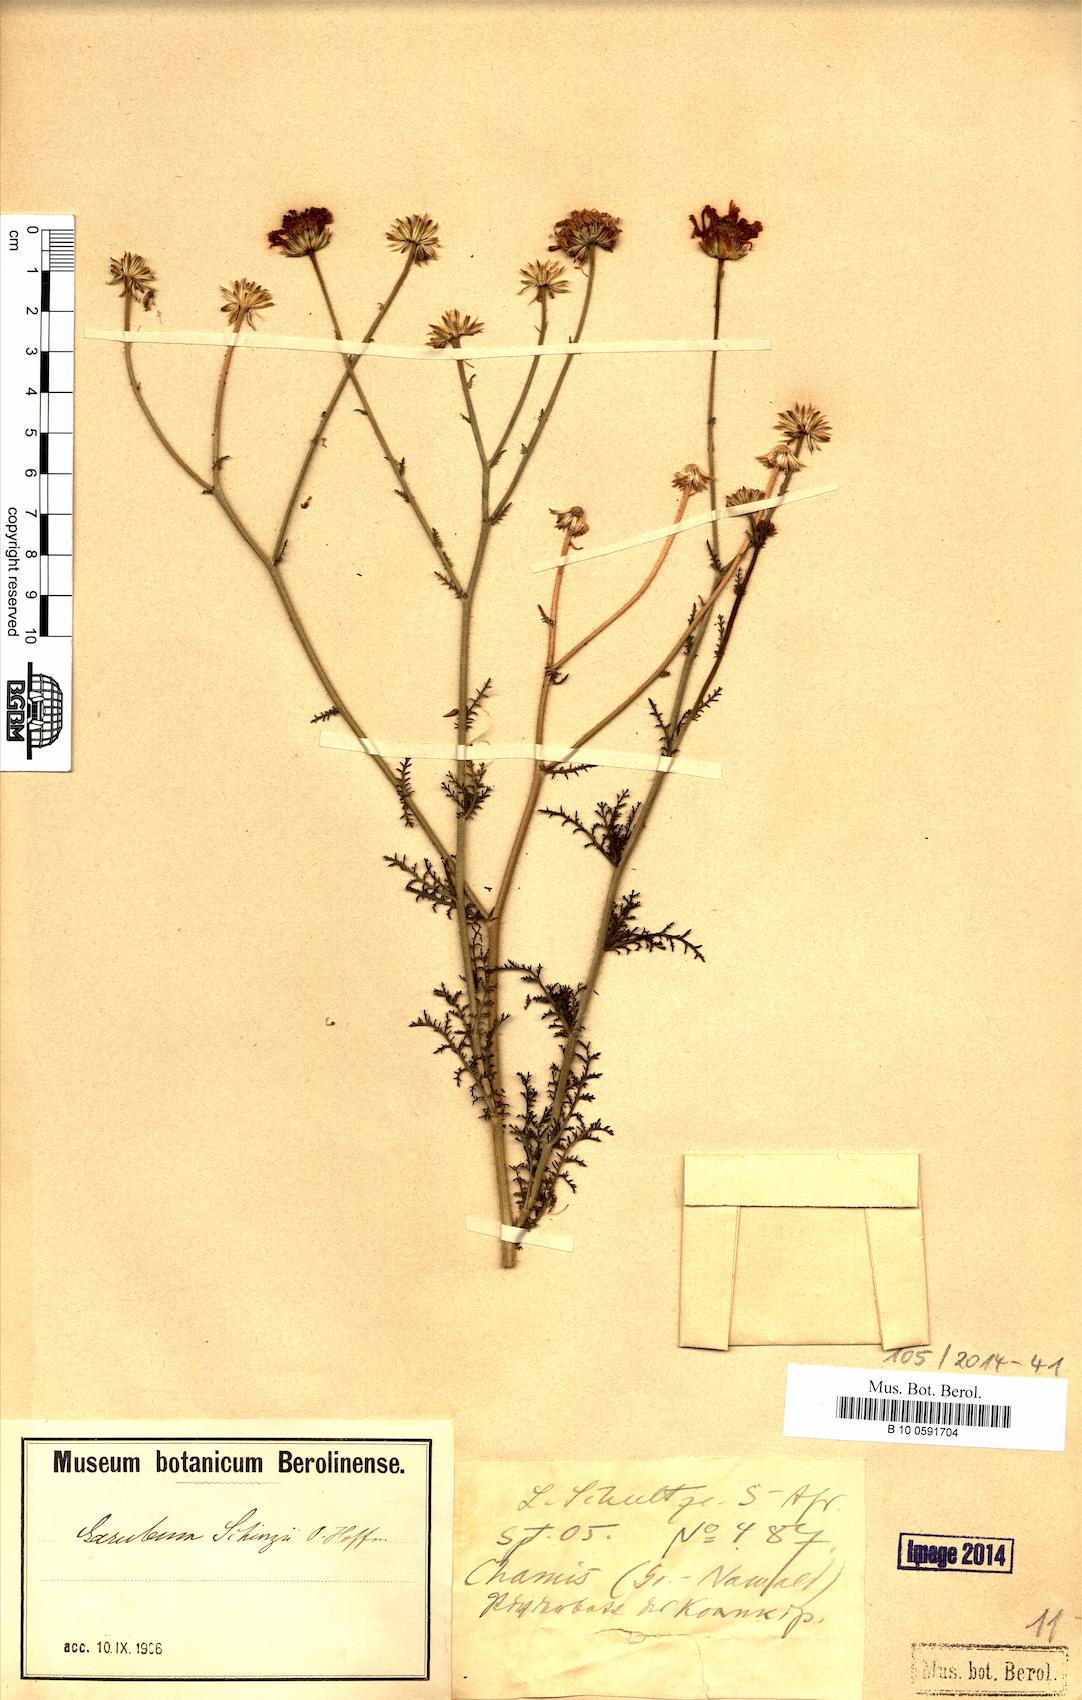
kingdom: Plantae
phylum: Tracheophyta
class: Magnoliopsida
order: Asterales
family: Asteraceae
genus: Garuleum
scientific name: Garuleum schinzii
